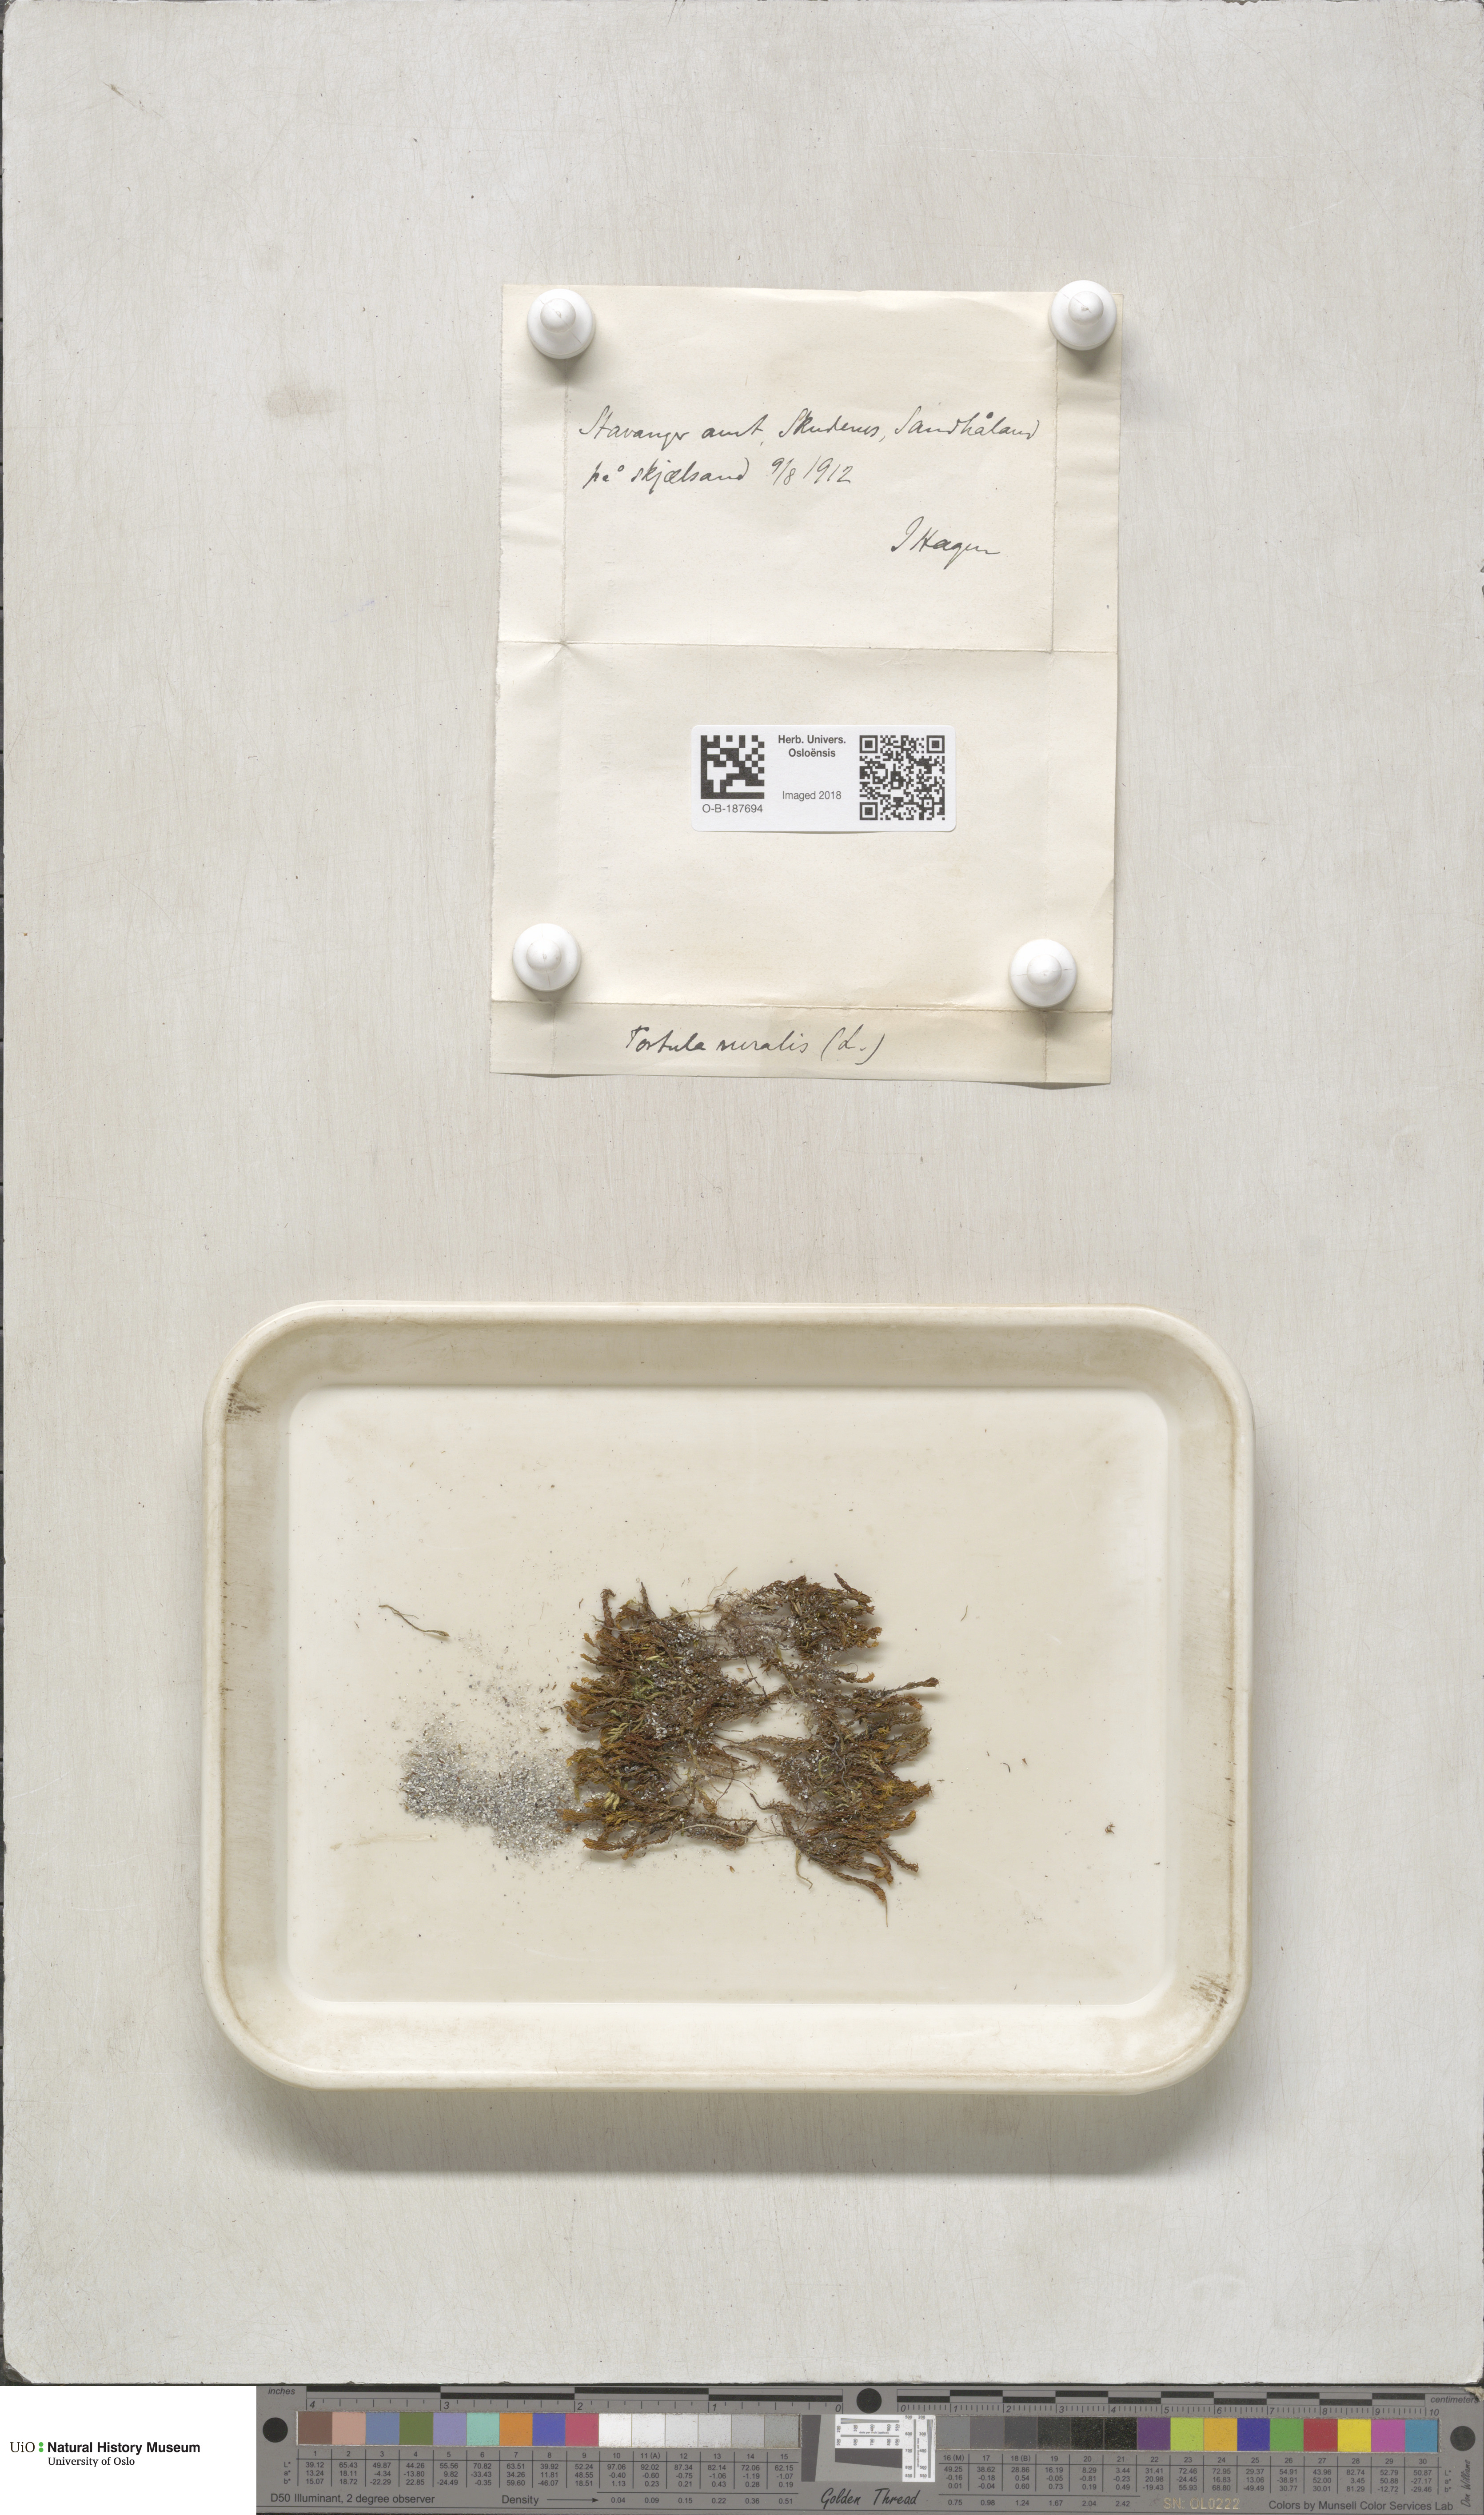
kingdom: Plantae
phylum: Bryophyta
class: Bryopsida
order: Pottiales
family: Pottiaceae
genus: Syntrichia
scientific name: Syntrichia ruralis
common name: Sidewalk screw moss
